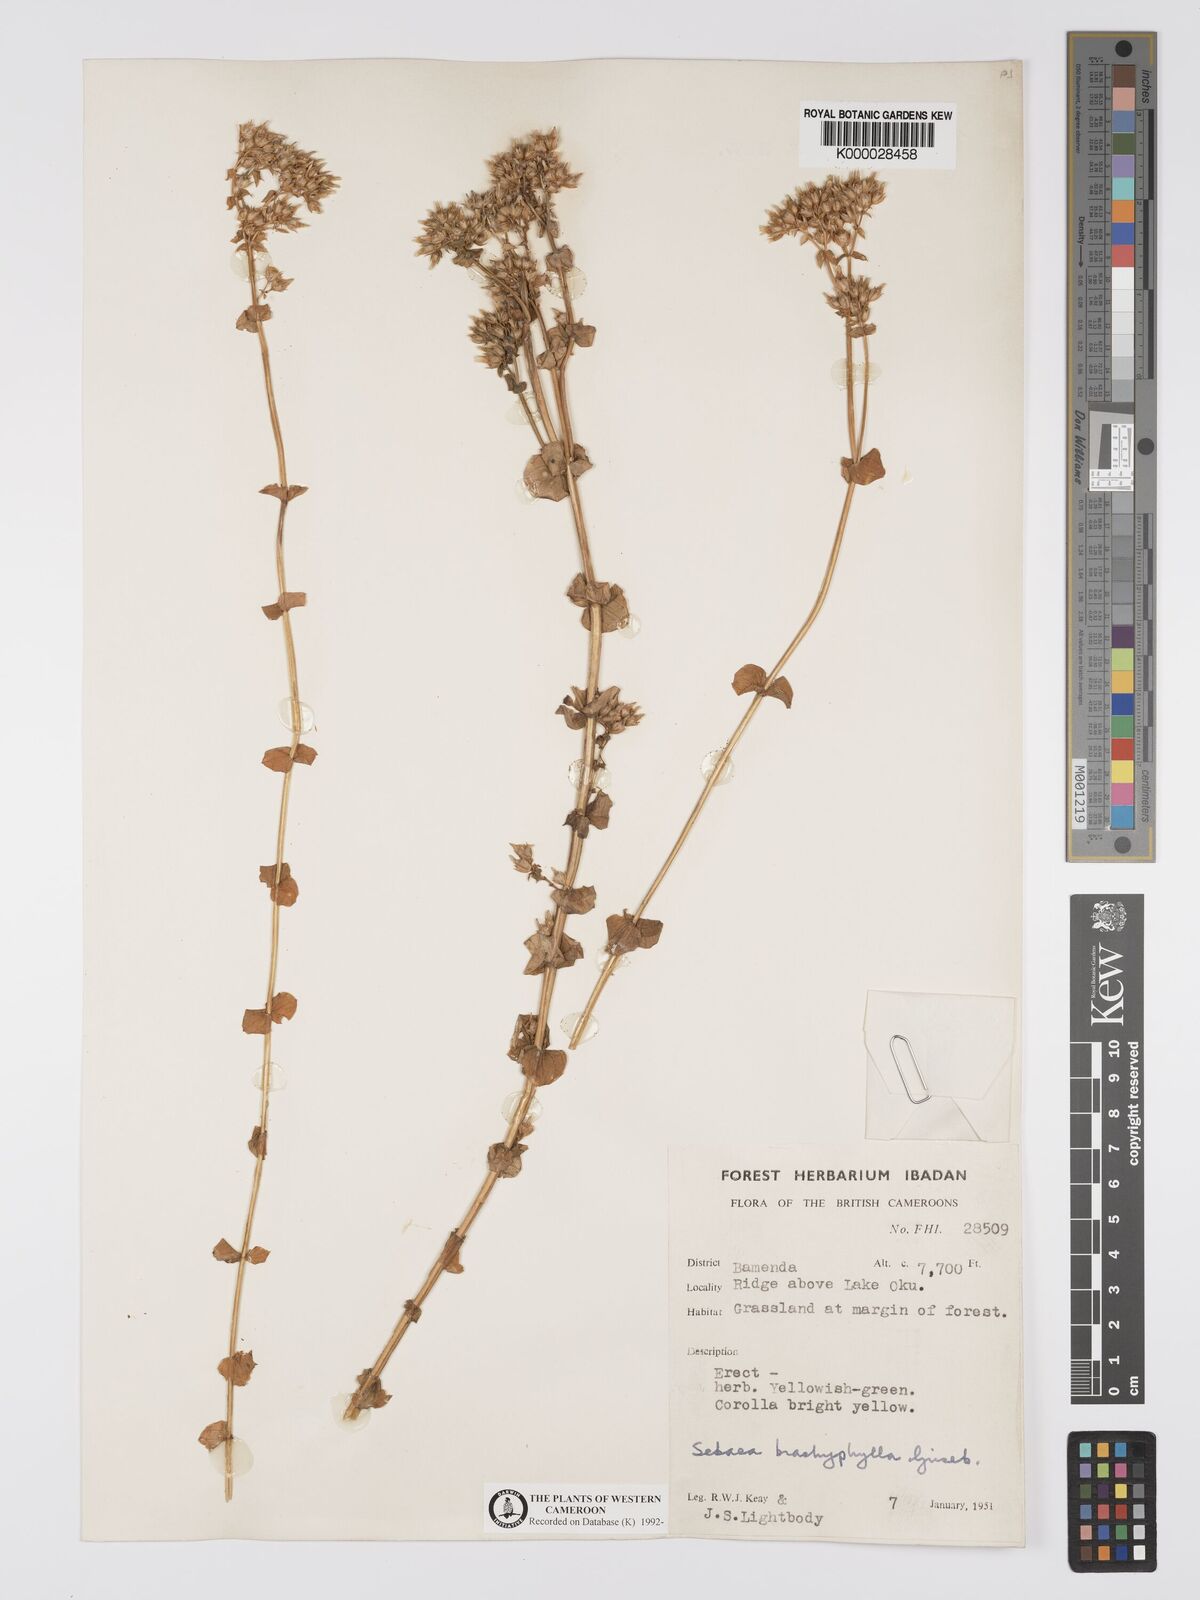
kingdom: Plantae
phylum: Tracheophyta
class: Magnoliopsida
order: Gentianales
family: Gentianaceae
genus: Sebaea
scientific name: Sebaea brachyphylla
